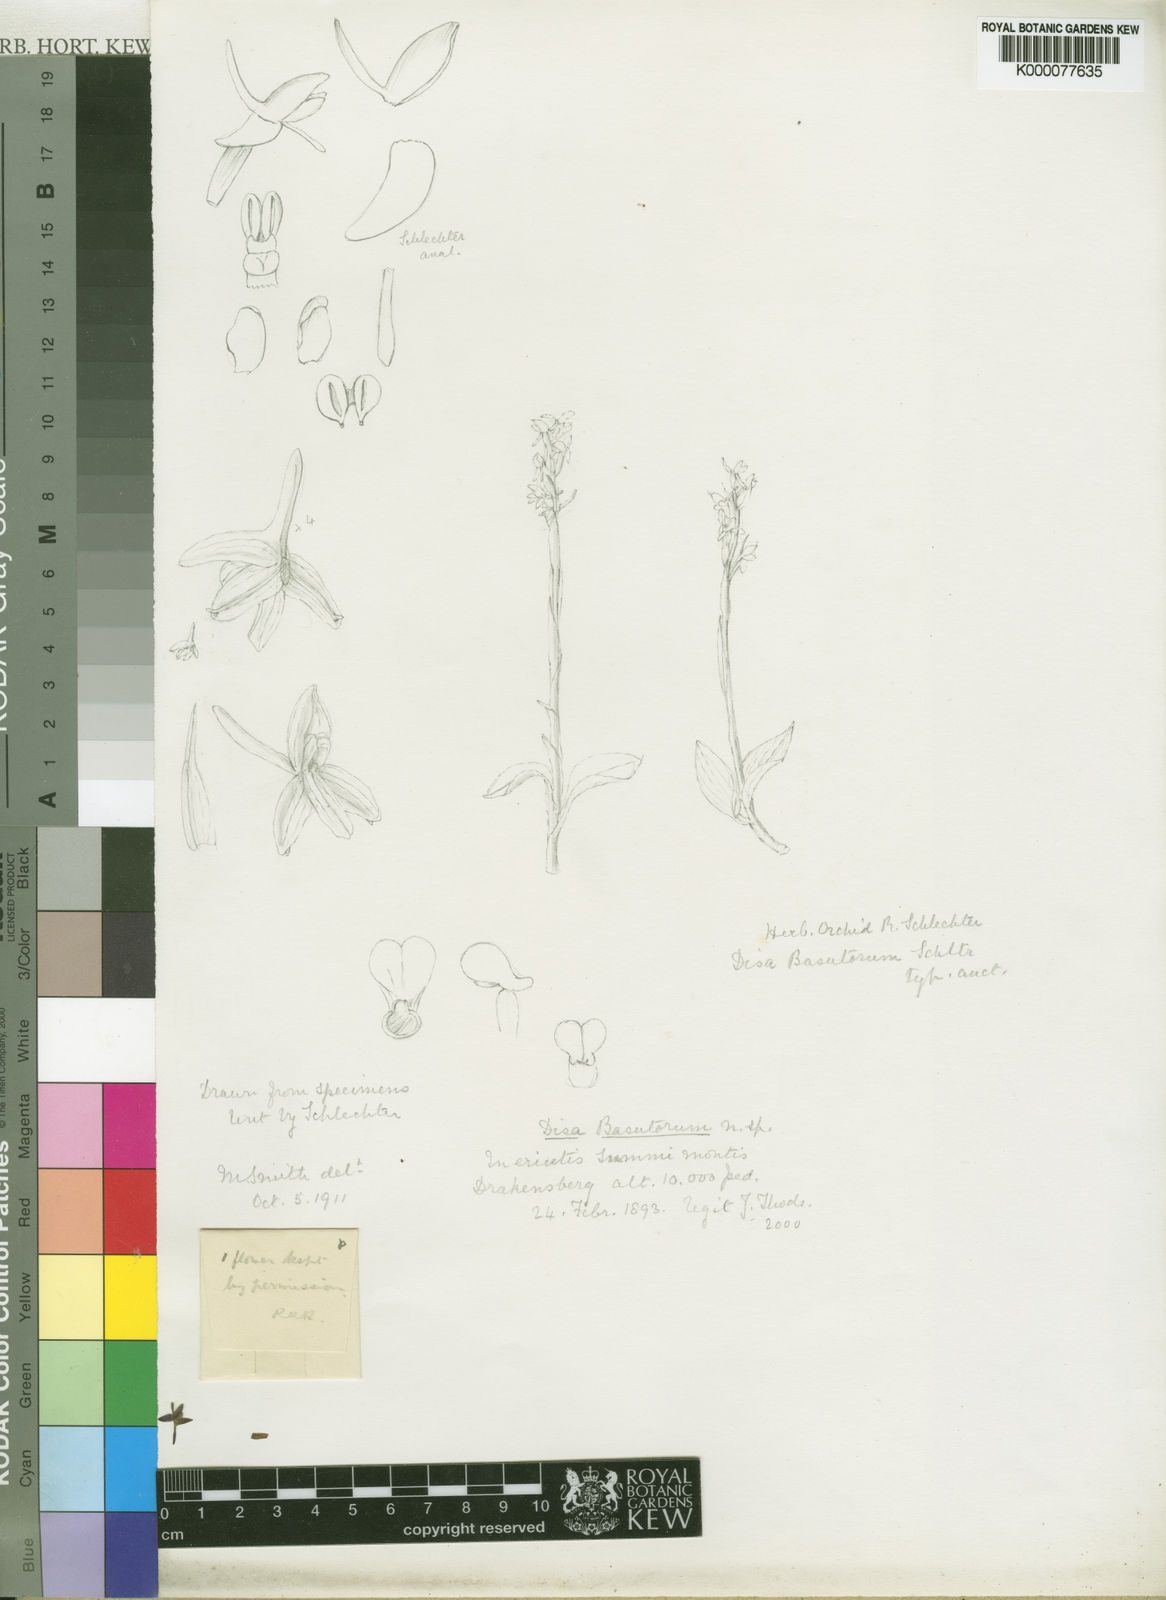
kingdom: Plantae
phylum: Tracheophyta
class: Liliopsida
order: Asparagales
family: Orchidaceae
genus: Disa
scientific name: Disa basutorum
